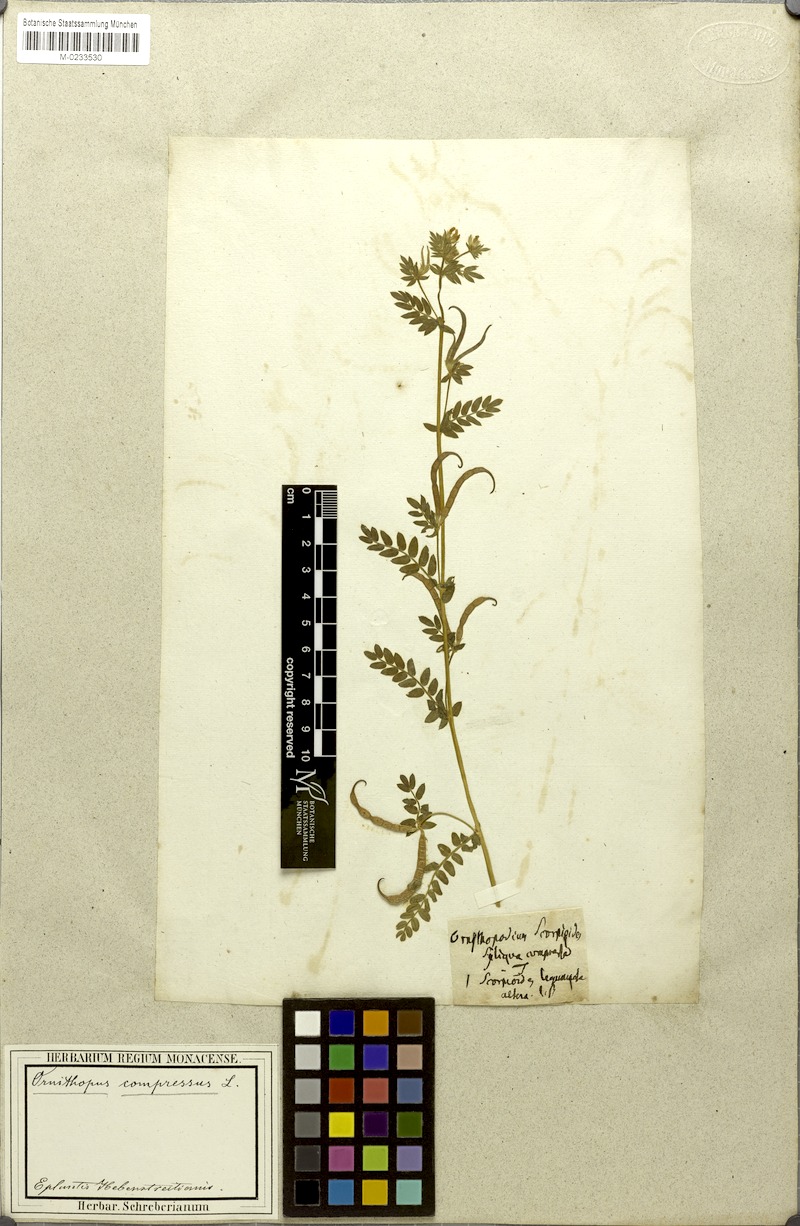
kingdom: Plantae
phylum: Tracheophyta
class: Magnoliopsida
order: Fabales
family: Fabaceae
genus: Ornithopus
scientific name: Ornithopus compressus
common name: Yellow serradella
